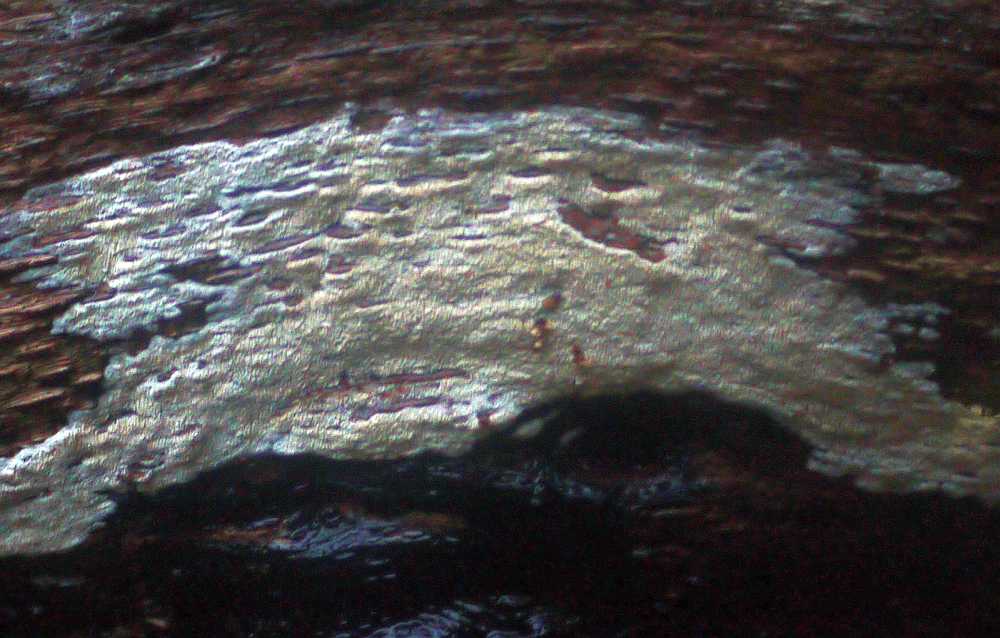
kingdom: Fungi
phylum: Basidiomycota
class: Agaricomycetes
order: Hymenochaetales
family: Schizoporaceae
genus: Xylodon
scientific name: Xylodon subtropicus
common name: labyrint-tandsvamp
